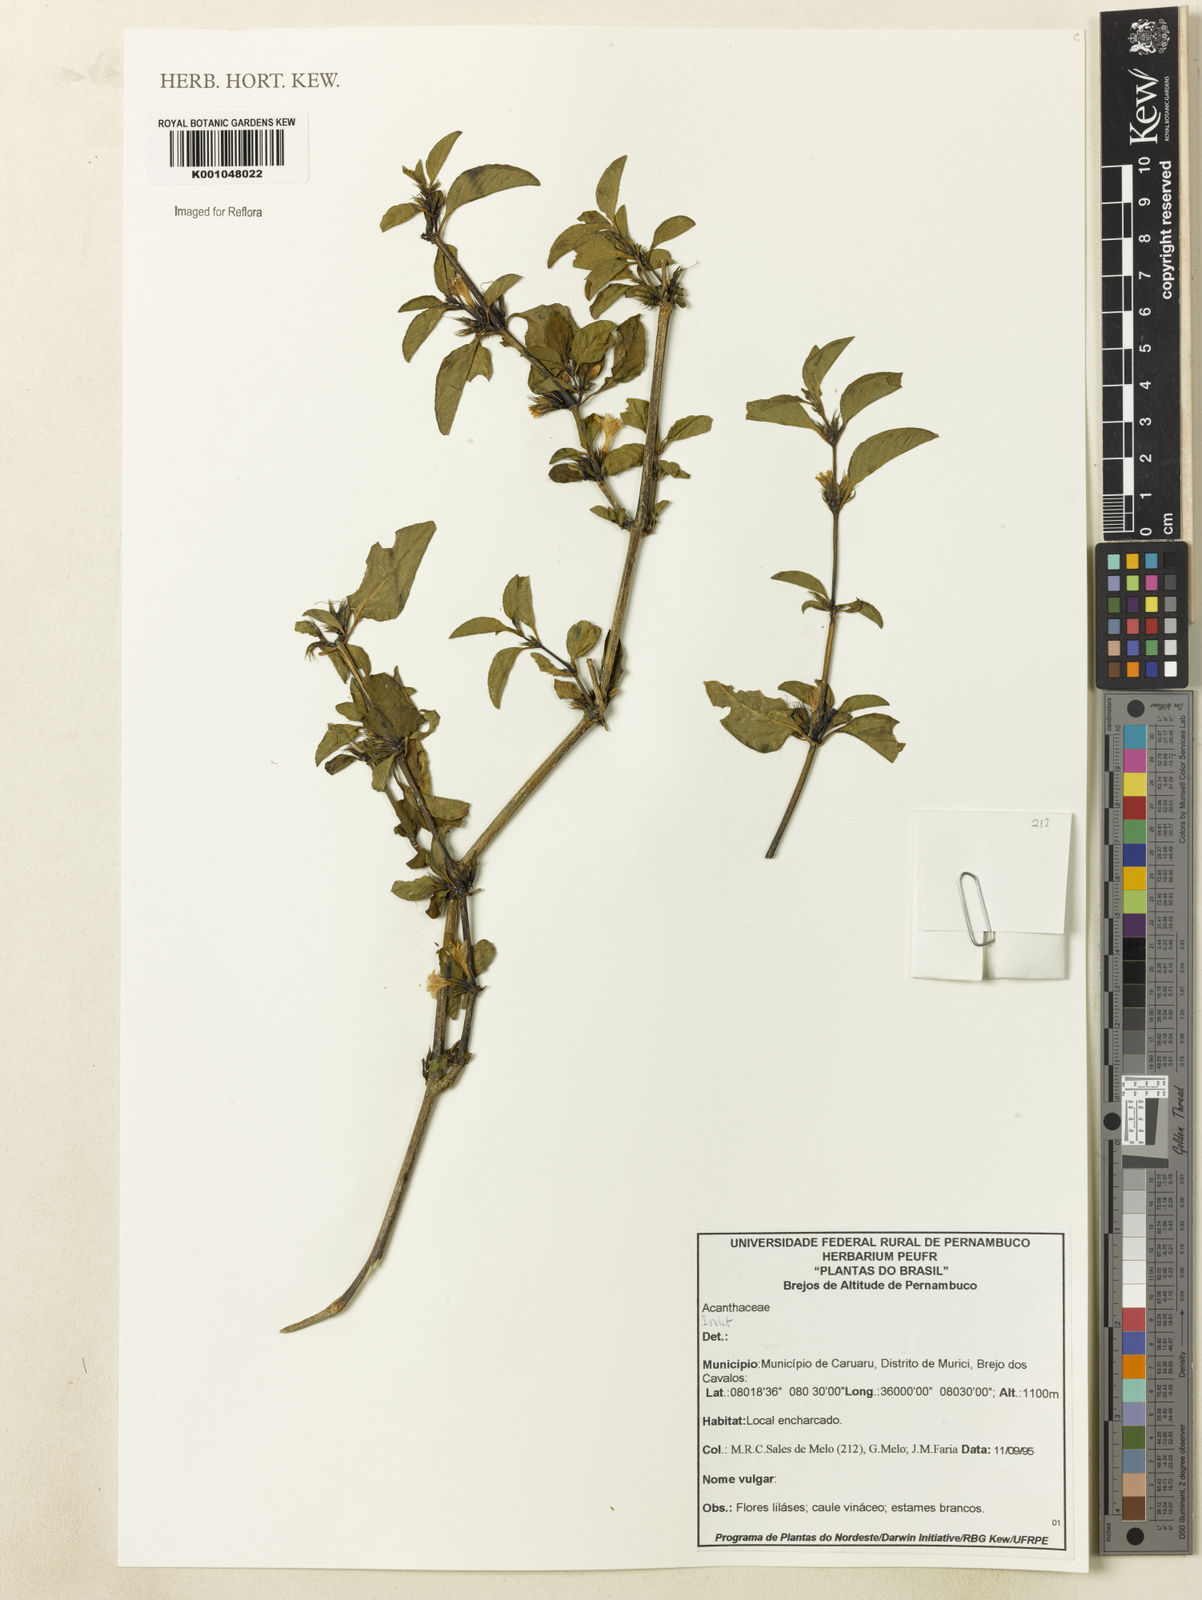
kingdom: Plantae
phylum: Tracheophyta
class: Magnoliopsida
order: Lamiales
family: Acanthaceae
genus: Dyschoriste
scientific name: Dyschoriste
